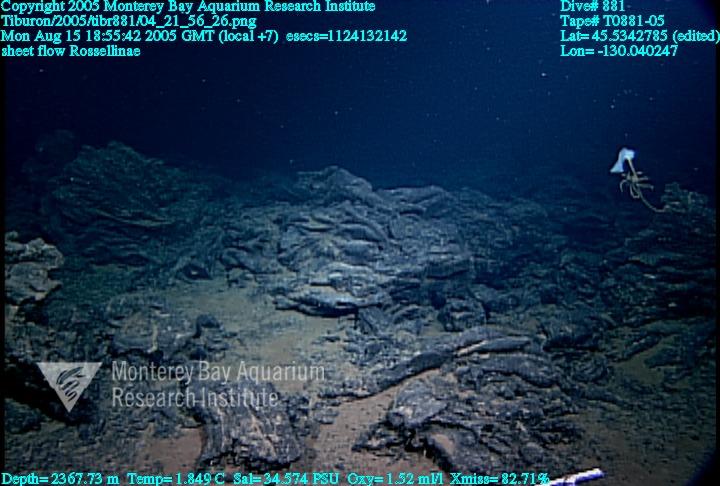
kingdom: Animalia
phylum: Porifera
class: Hexactinellida
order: Lyssacinosida
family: Rossellidae
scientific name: Rossellidae
